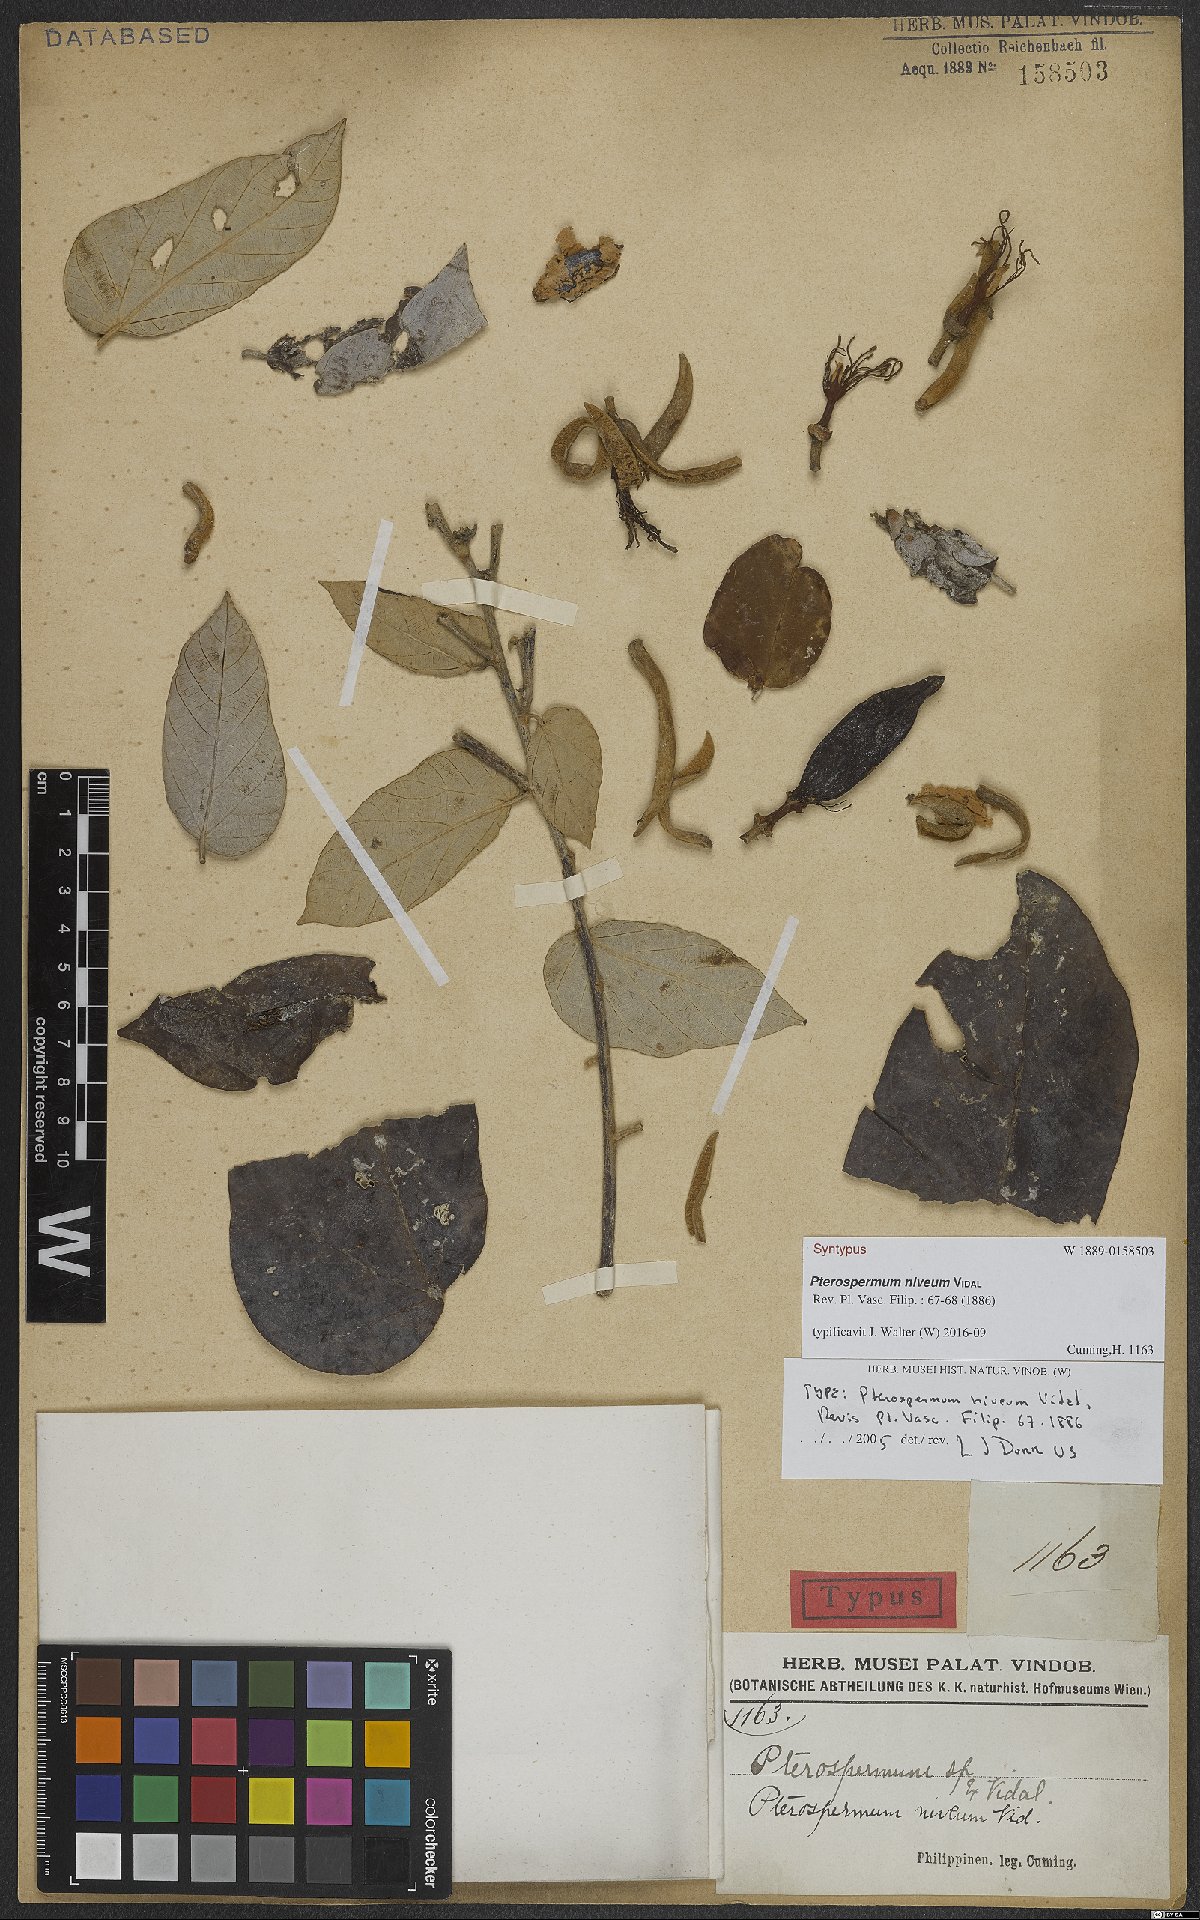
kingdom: Plantae
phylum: Tracheophyta
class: Magnoliopsida
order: Malvales
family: Malvaceae
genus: Pterospermum
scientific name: Pterospermum niveum
